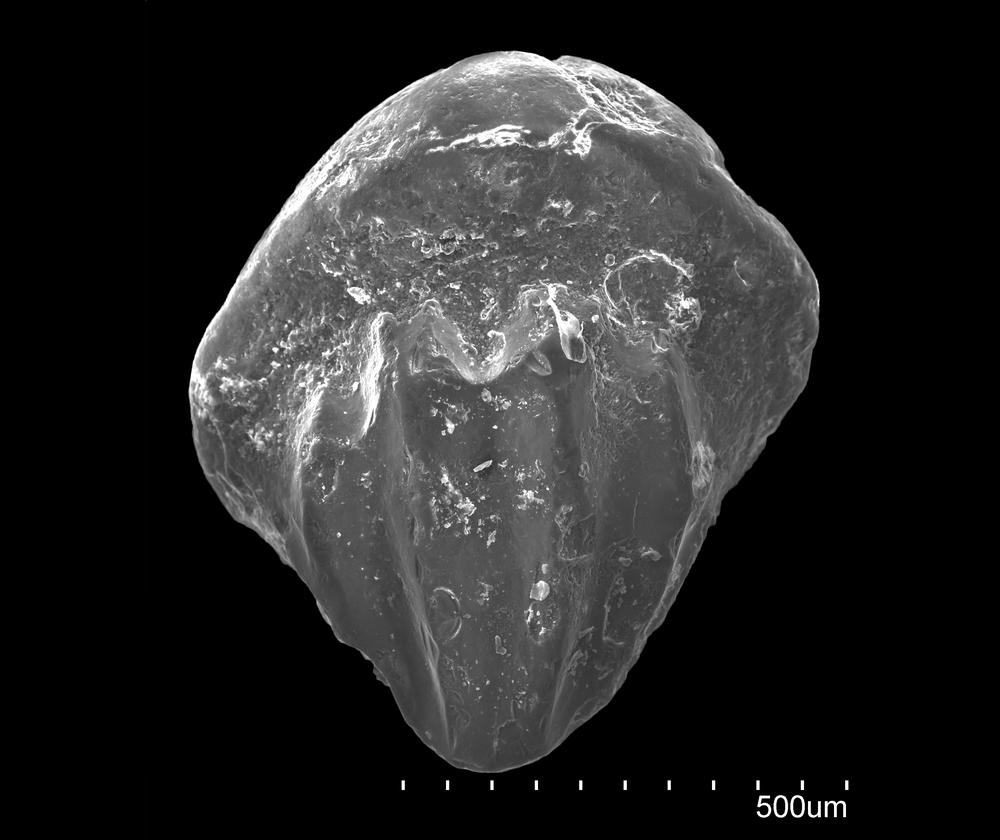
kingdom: Animalia
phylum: Chordata
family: Climatiidae
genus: Nostolepis
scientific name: Nostolepis
